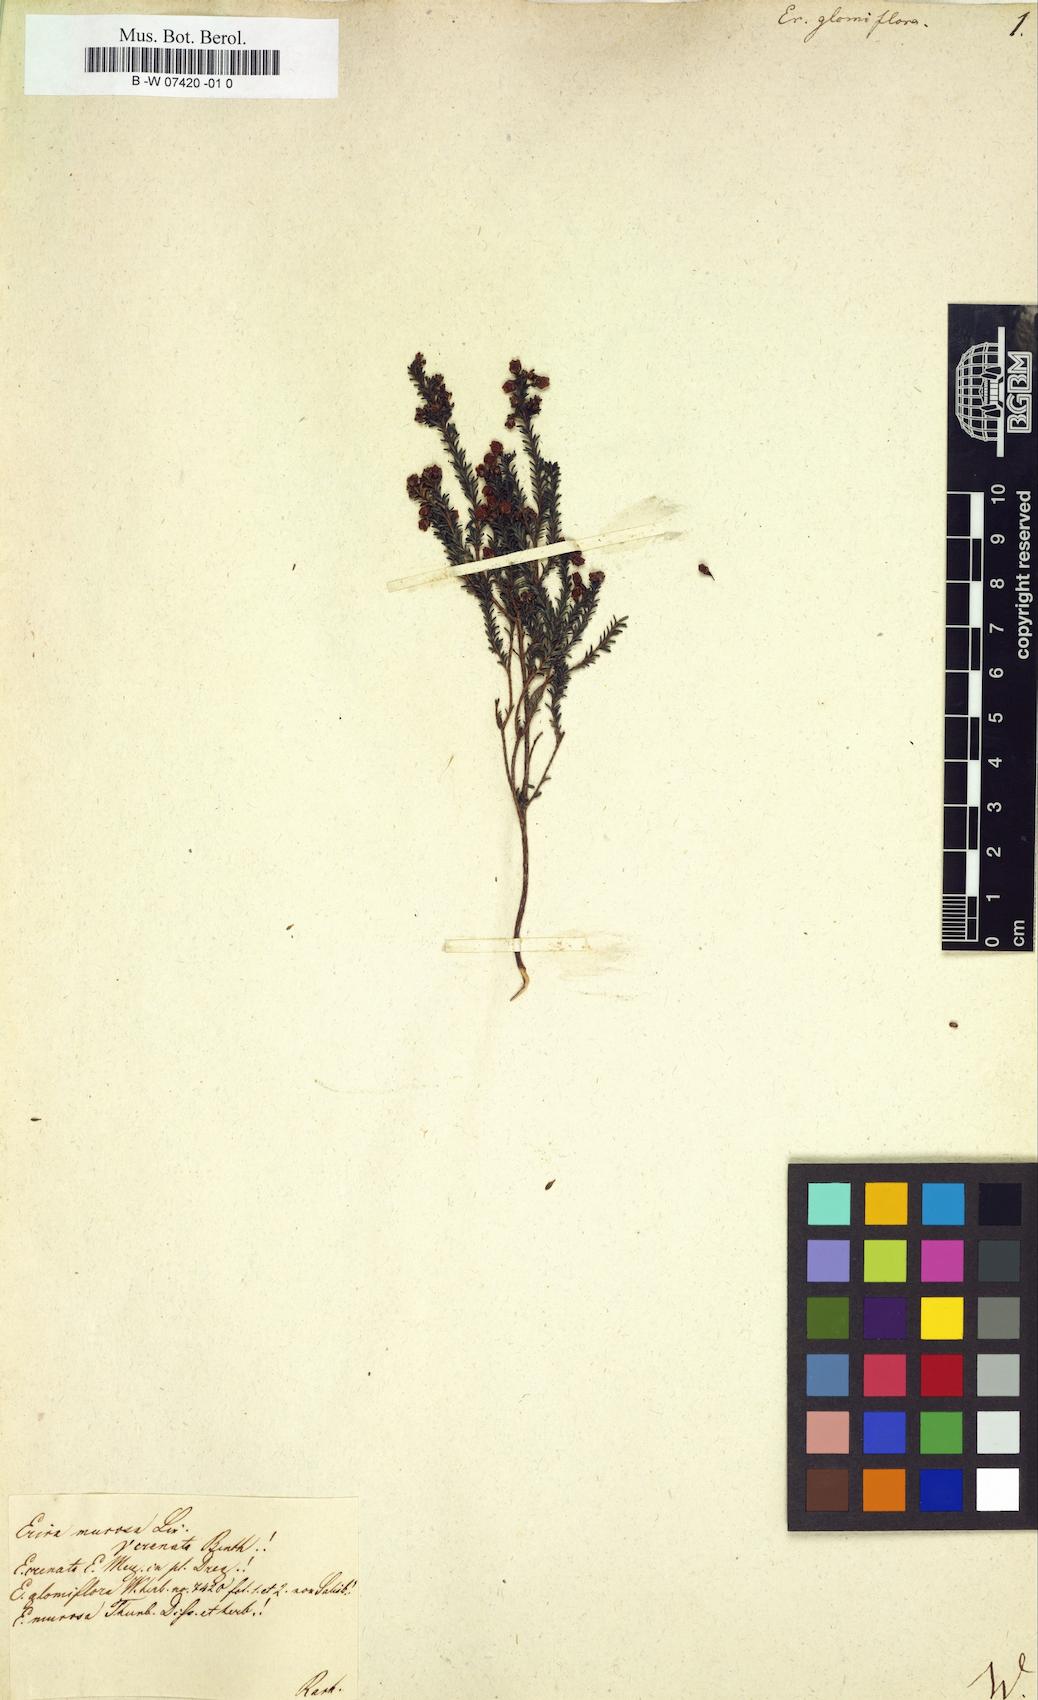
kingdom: Plantae
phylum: Tracheophyta
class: Magnoliopsida
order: Ericales
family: Ericaceae
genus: Erica
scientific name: Erica glomiflora
